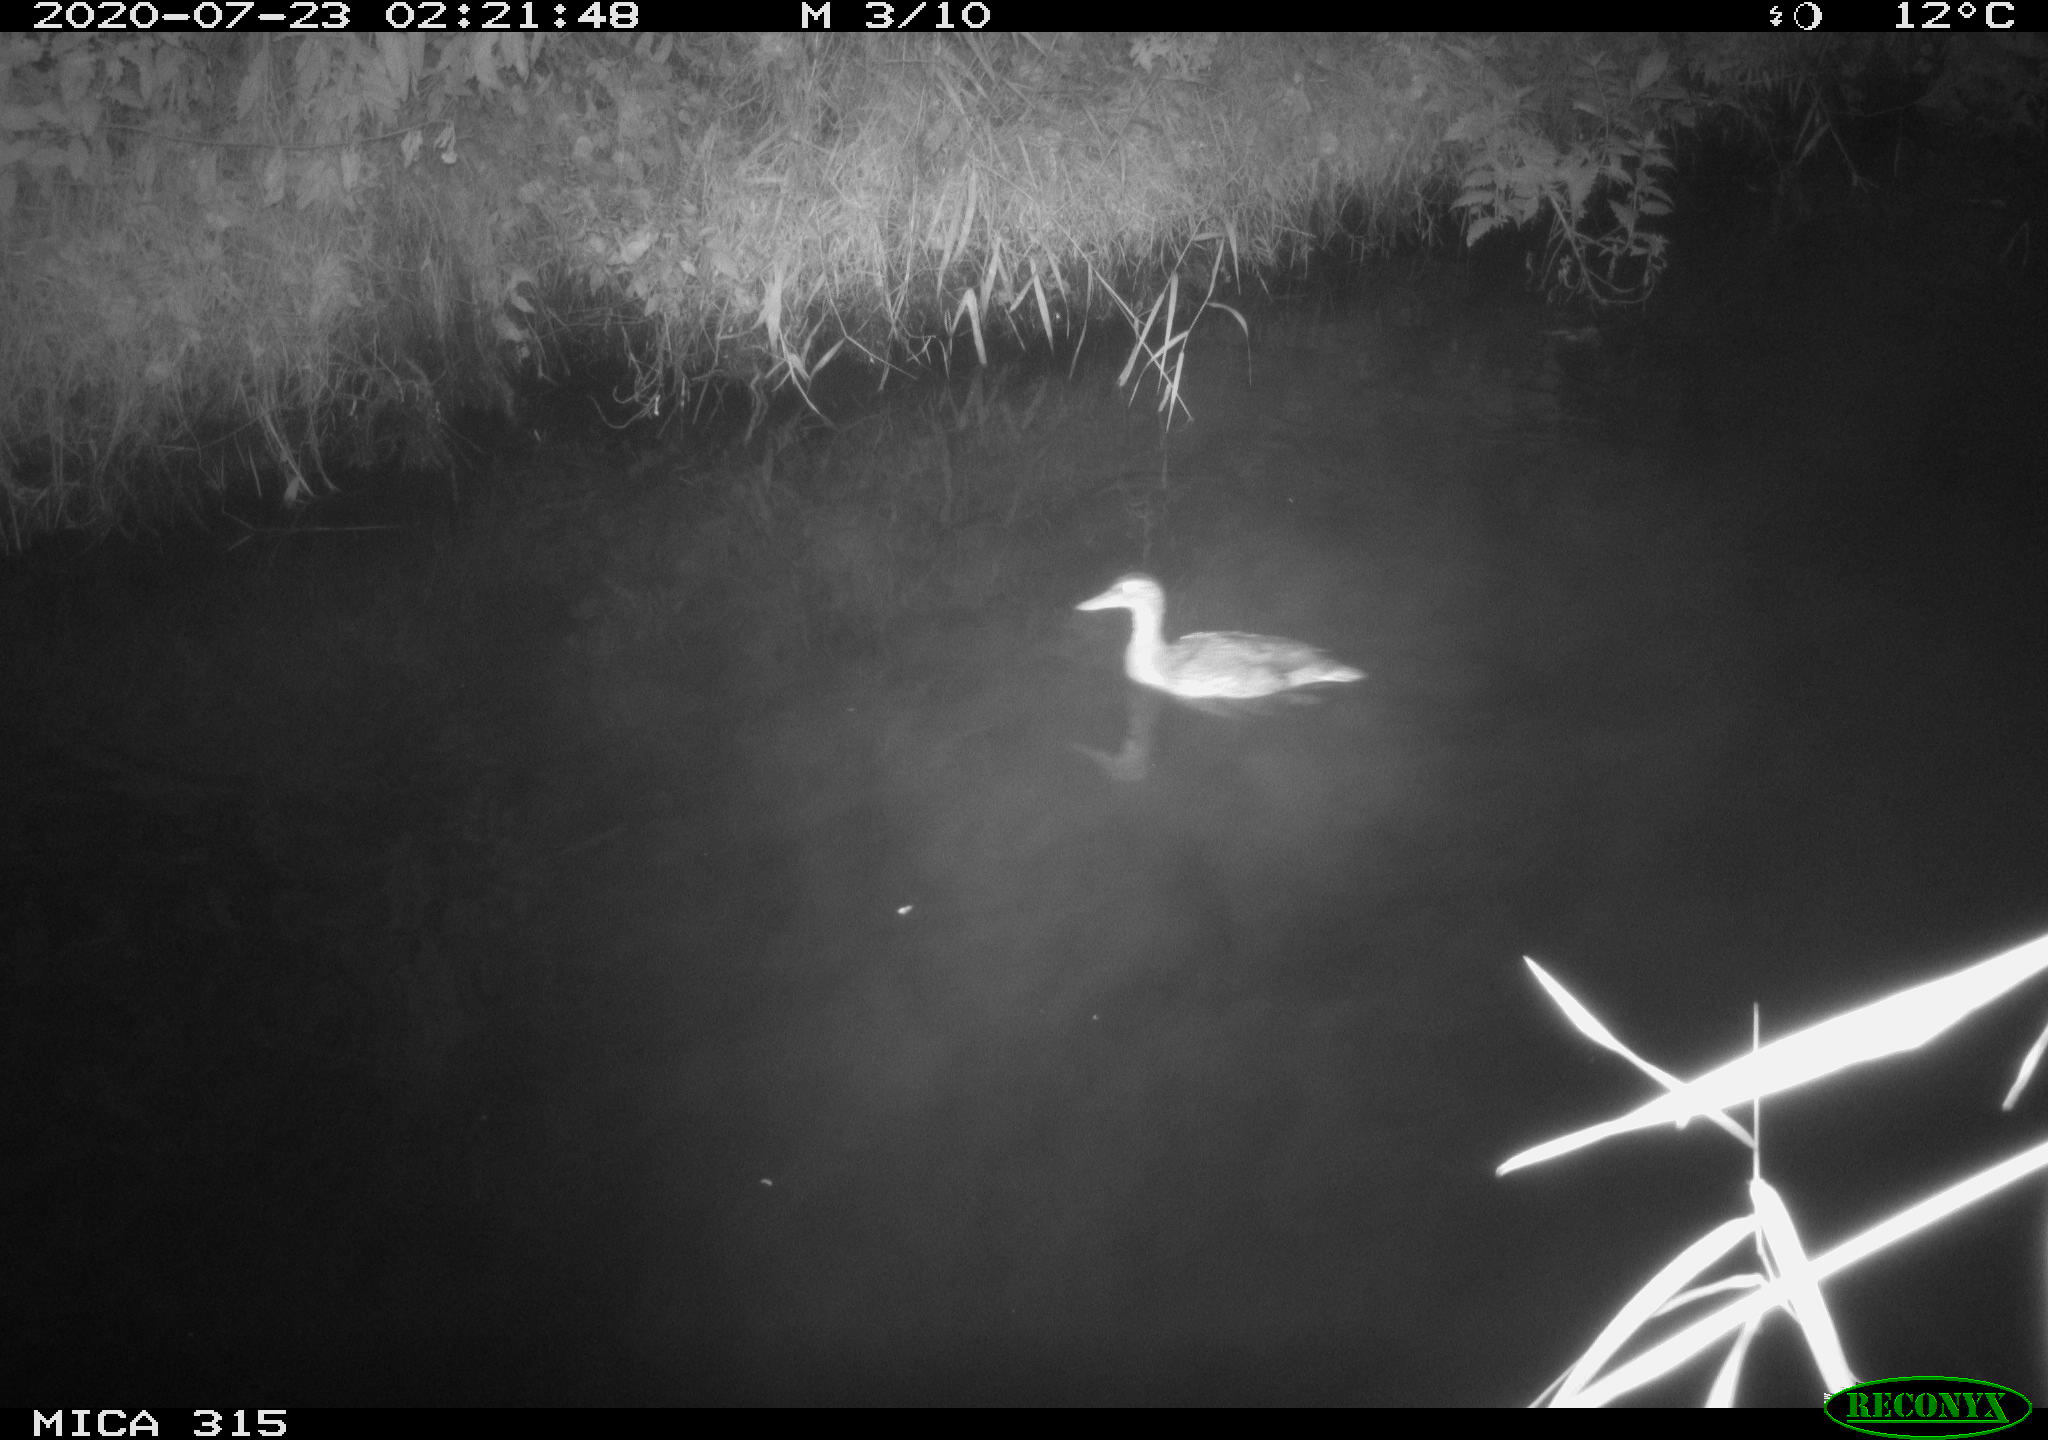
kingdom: Animalia
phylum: Chordata
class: Aves
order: Anseriformes
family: Anatidae
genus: Anas
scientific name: Anas platyrhynchos
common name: Mallard
